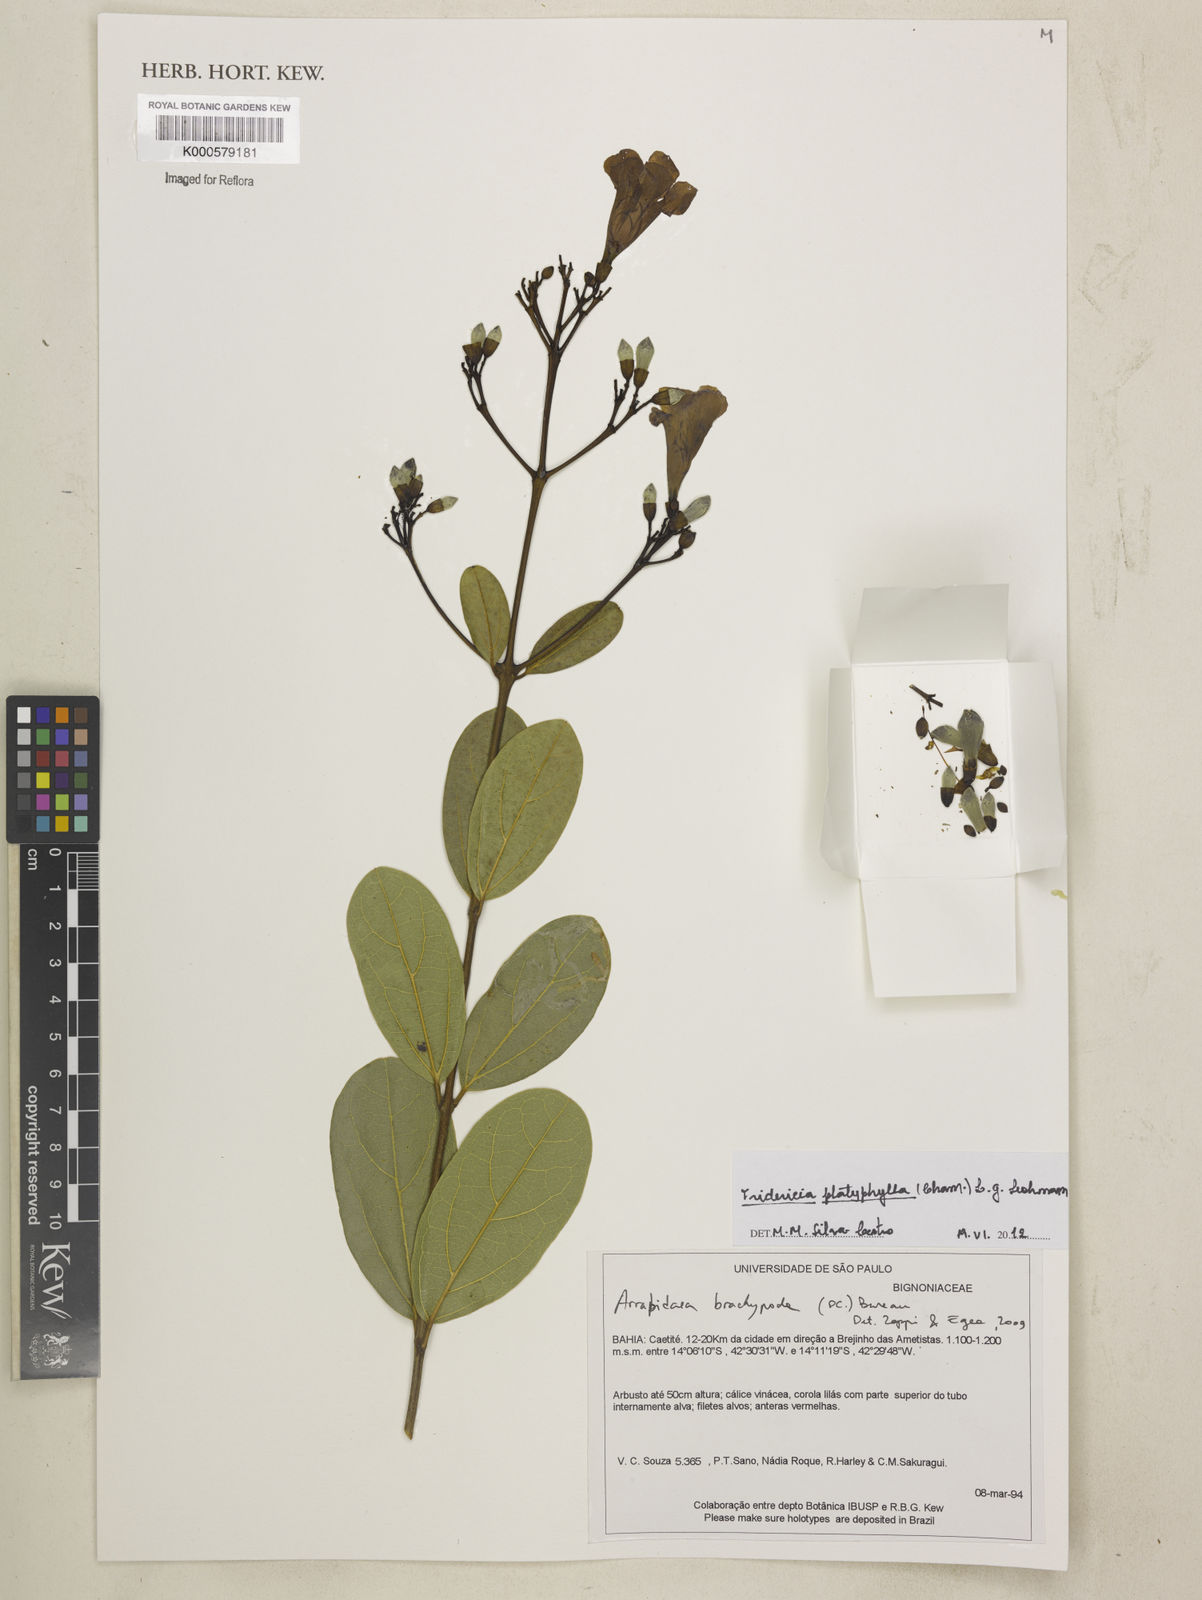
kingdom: Plantae
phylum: Tracheophyta
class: Magnoliopsida
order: Lamiales
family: Bignoniaceae
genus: Fridericia
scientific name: Fridericia platyphylla
